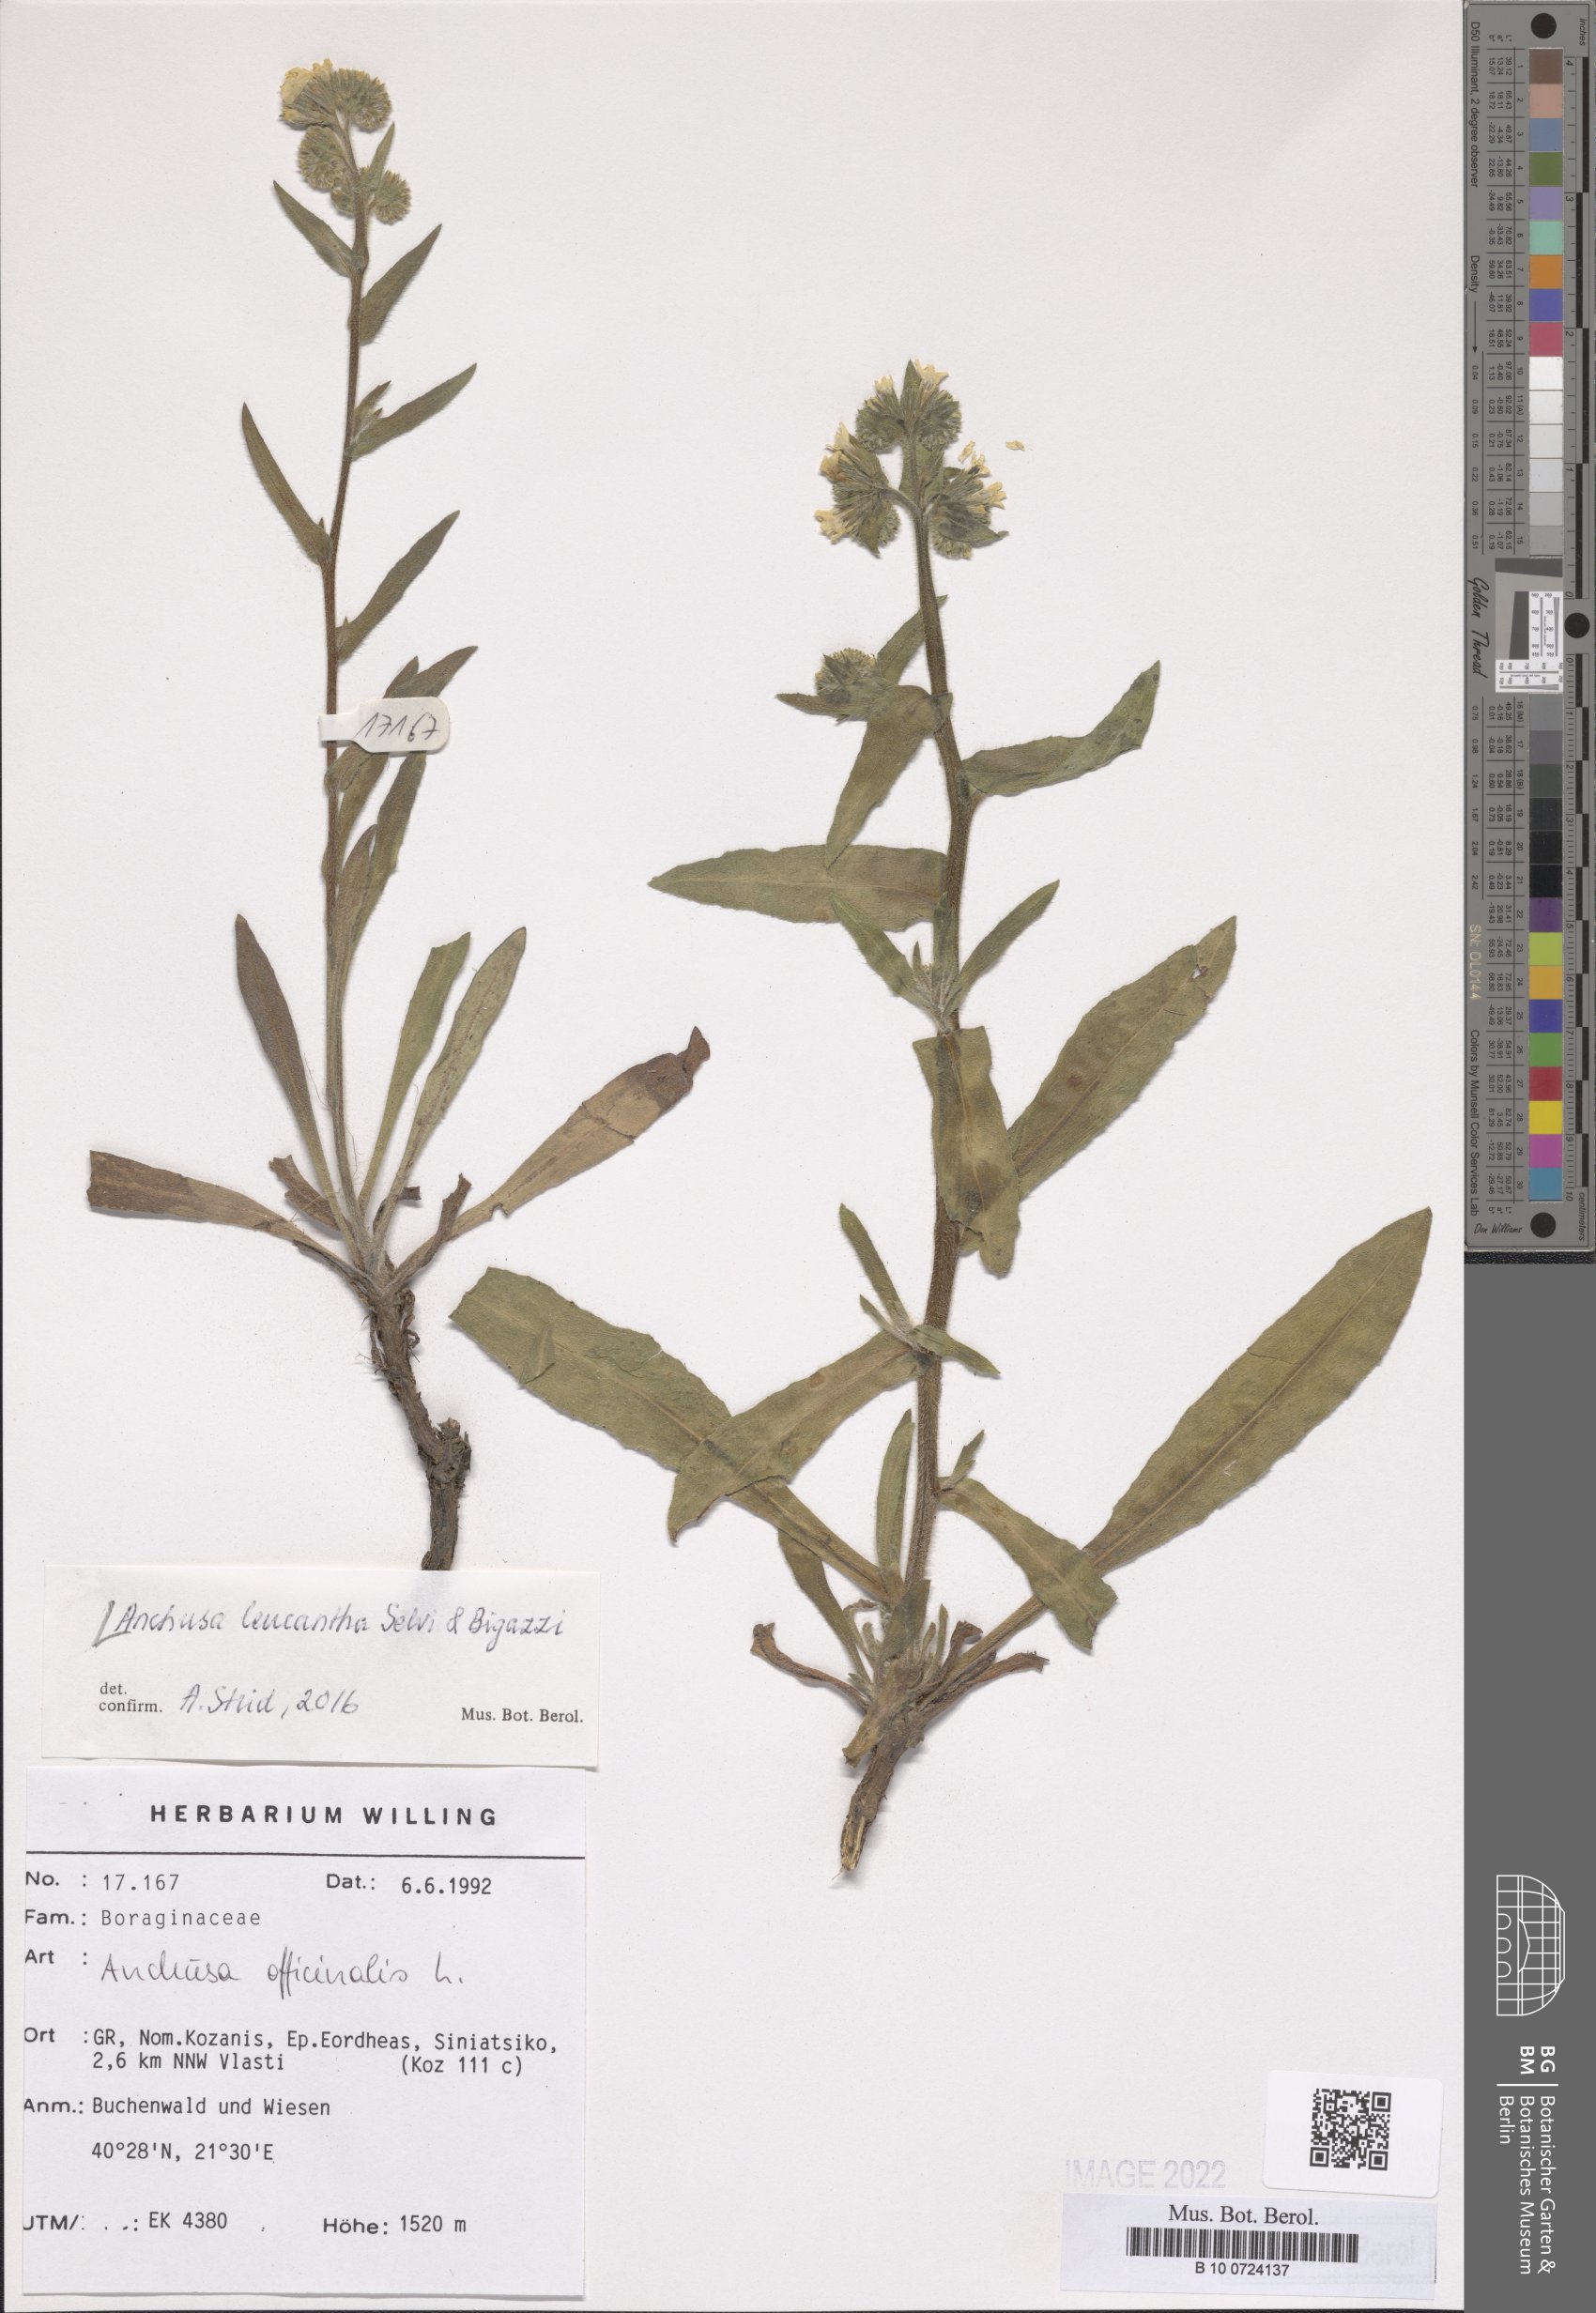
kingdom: Plantae
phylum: Tracheophyta
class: Magnoliopsida
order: Boraginales
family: Boraginaceae
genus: Anchusa
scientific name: Anchusa officinalis
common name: Alkanet
